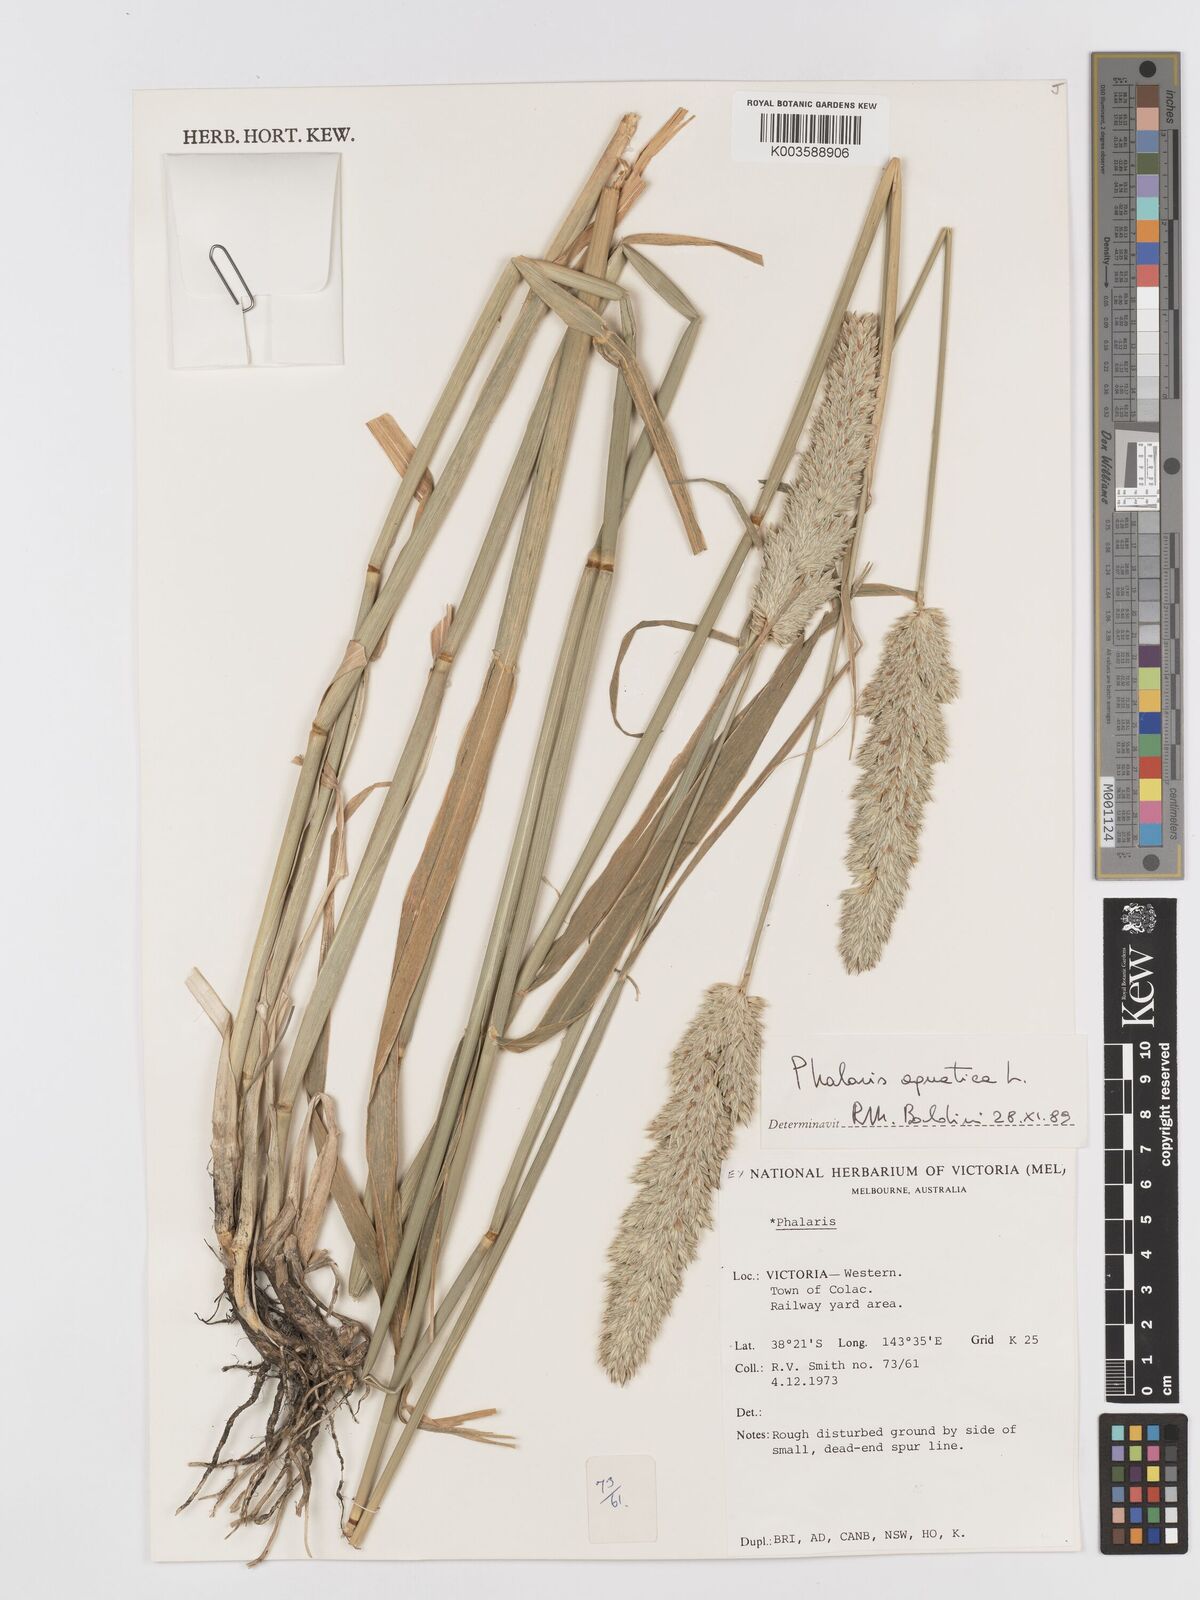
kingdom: Plantae
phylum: Tracheophyta
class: Liliopsida
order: Poales
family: Poaceae
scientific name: Poaceae
